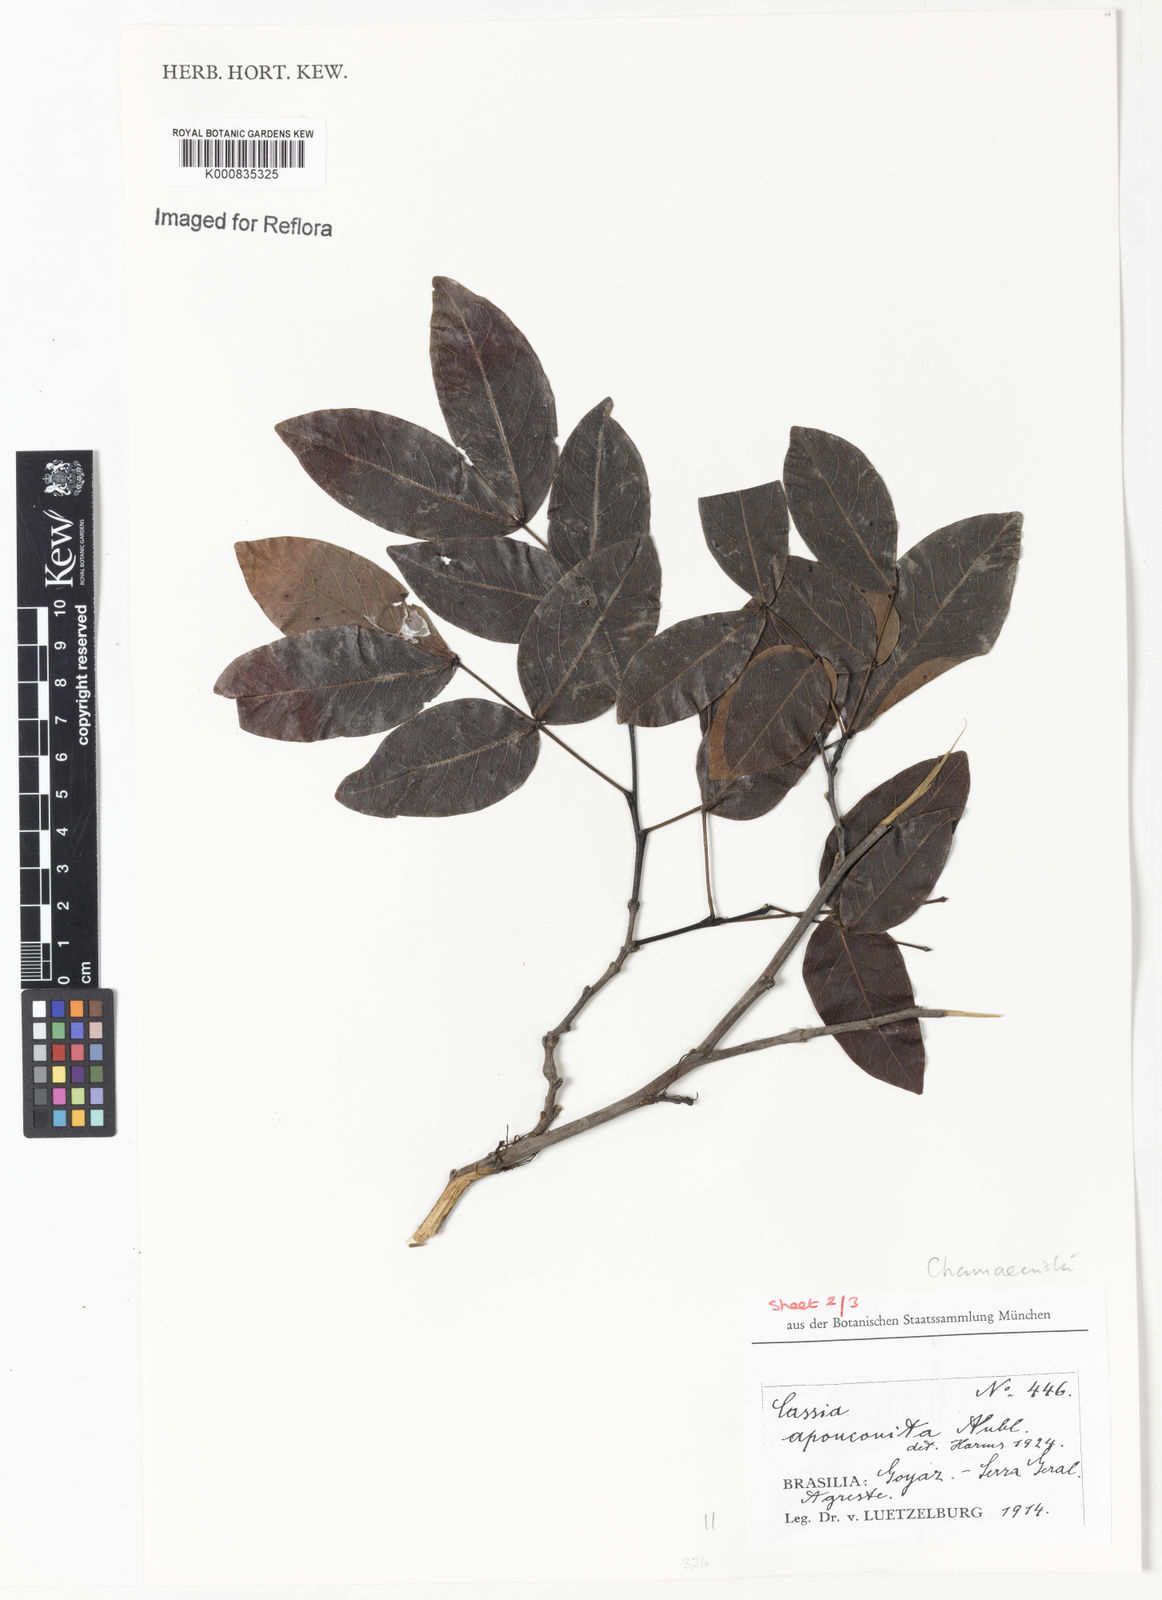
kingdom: Plantae
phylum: Tracheophyta
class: Magnoliopsida
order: Fabales
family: Fabaceae
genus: Chamaecrista
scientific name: Chamaecrista apoucouita
